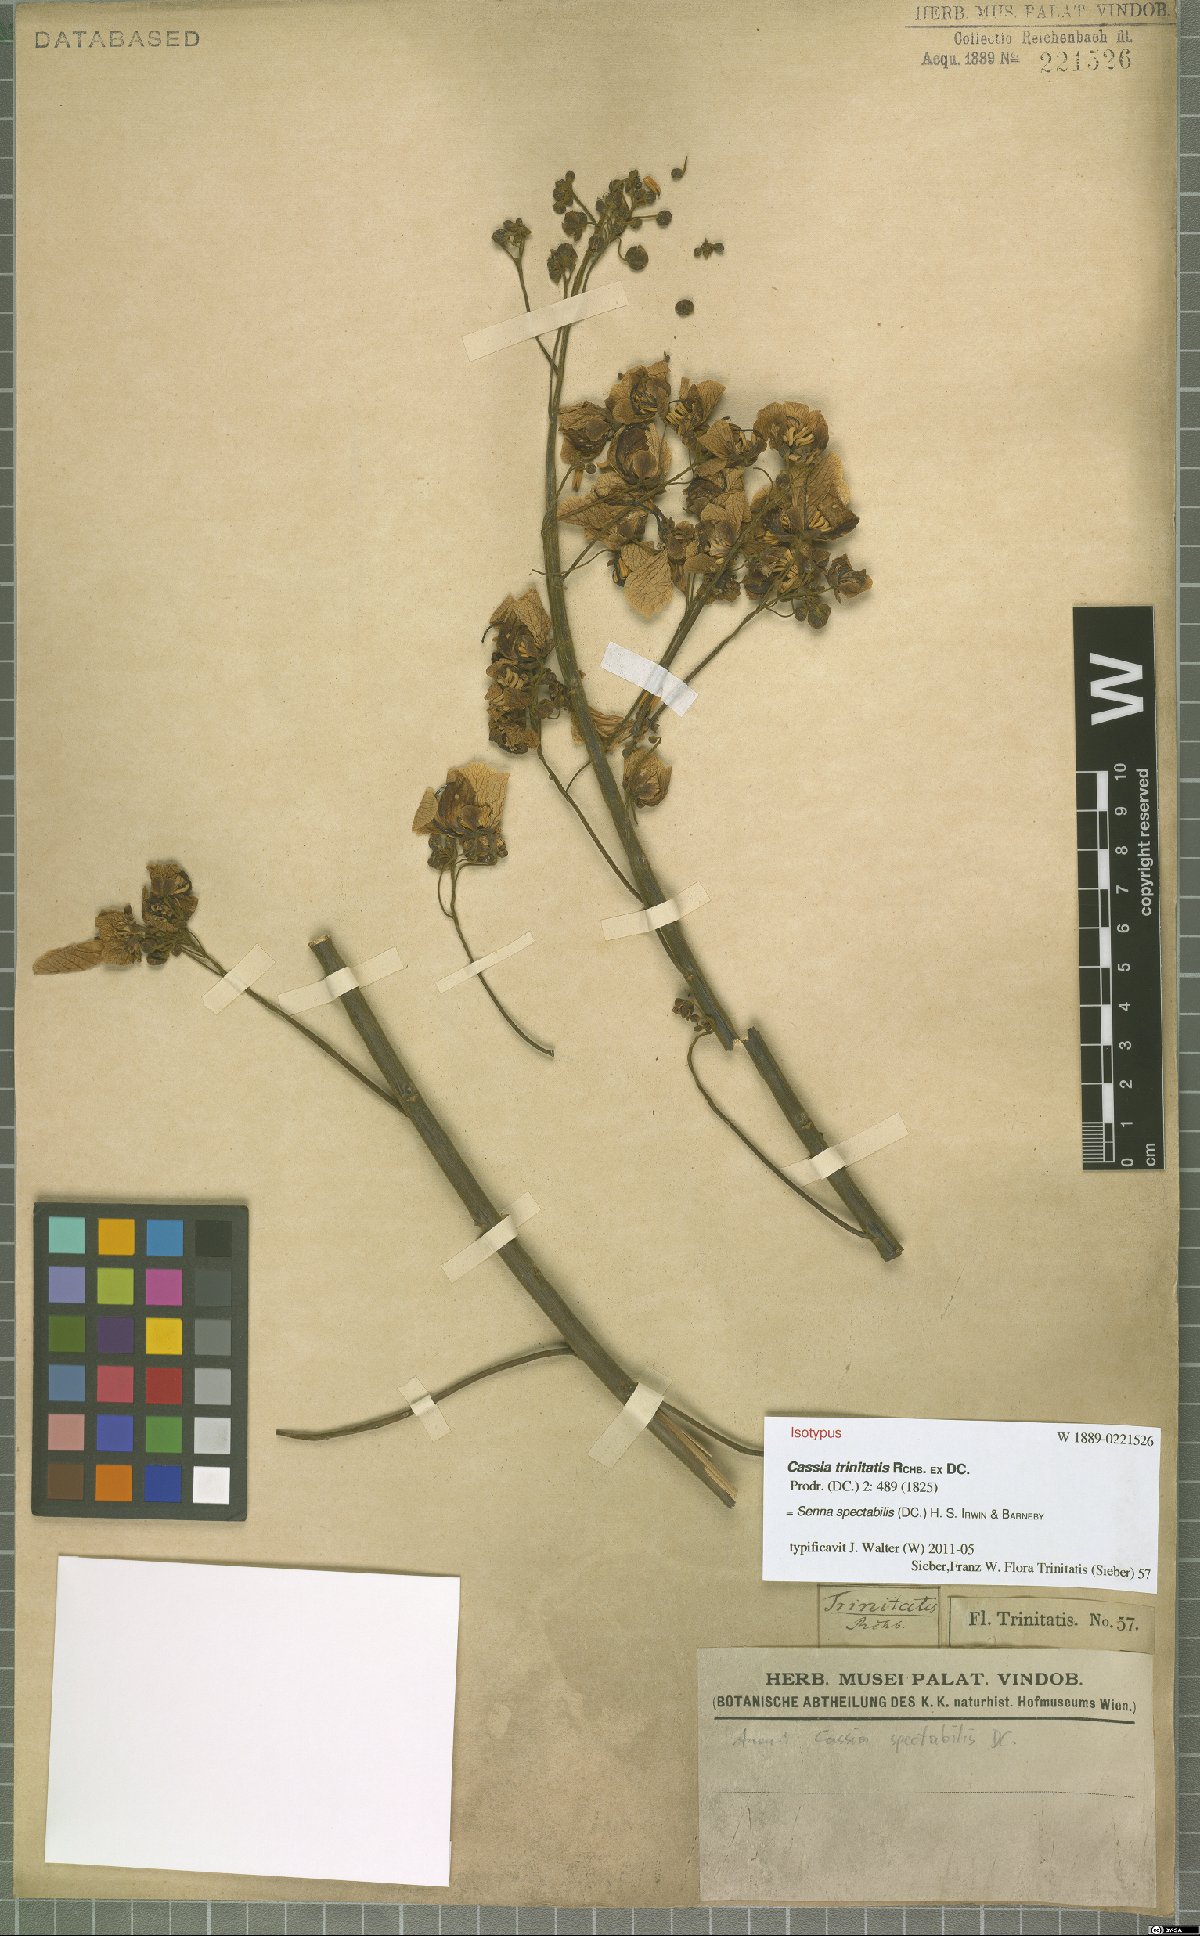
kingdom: Plantae
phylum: Tracheophyta
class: Magnoliopsida
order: Fabales
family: Fabaceae
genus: Senna
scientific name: Senna spectabilis
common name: Casia amarilla
